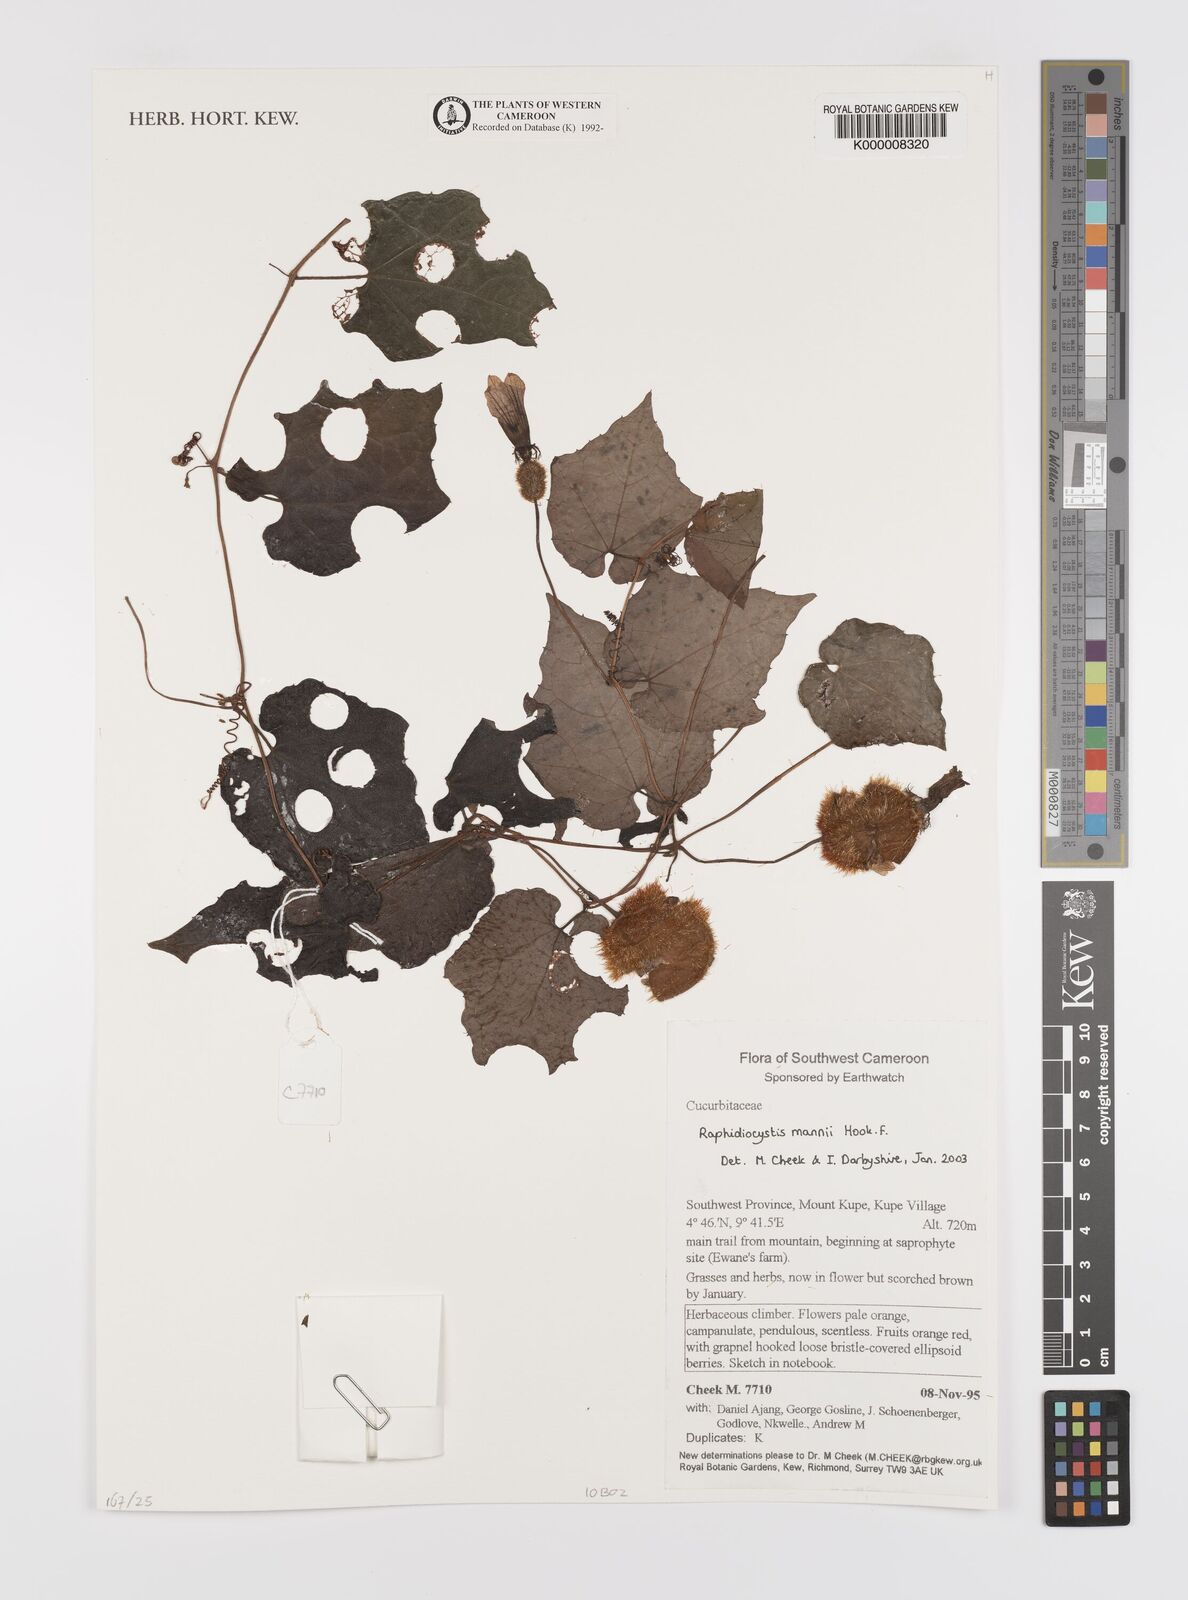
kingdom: Plantae
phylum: Tracheophyta
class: Magnoliopsida
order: Cucurbitales
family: Cucurbitaceae
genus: Raphidiocystis
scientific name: Raphidiocystis mannii
